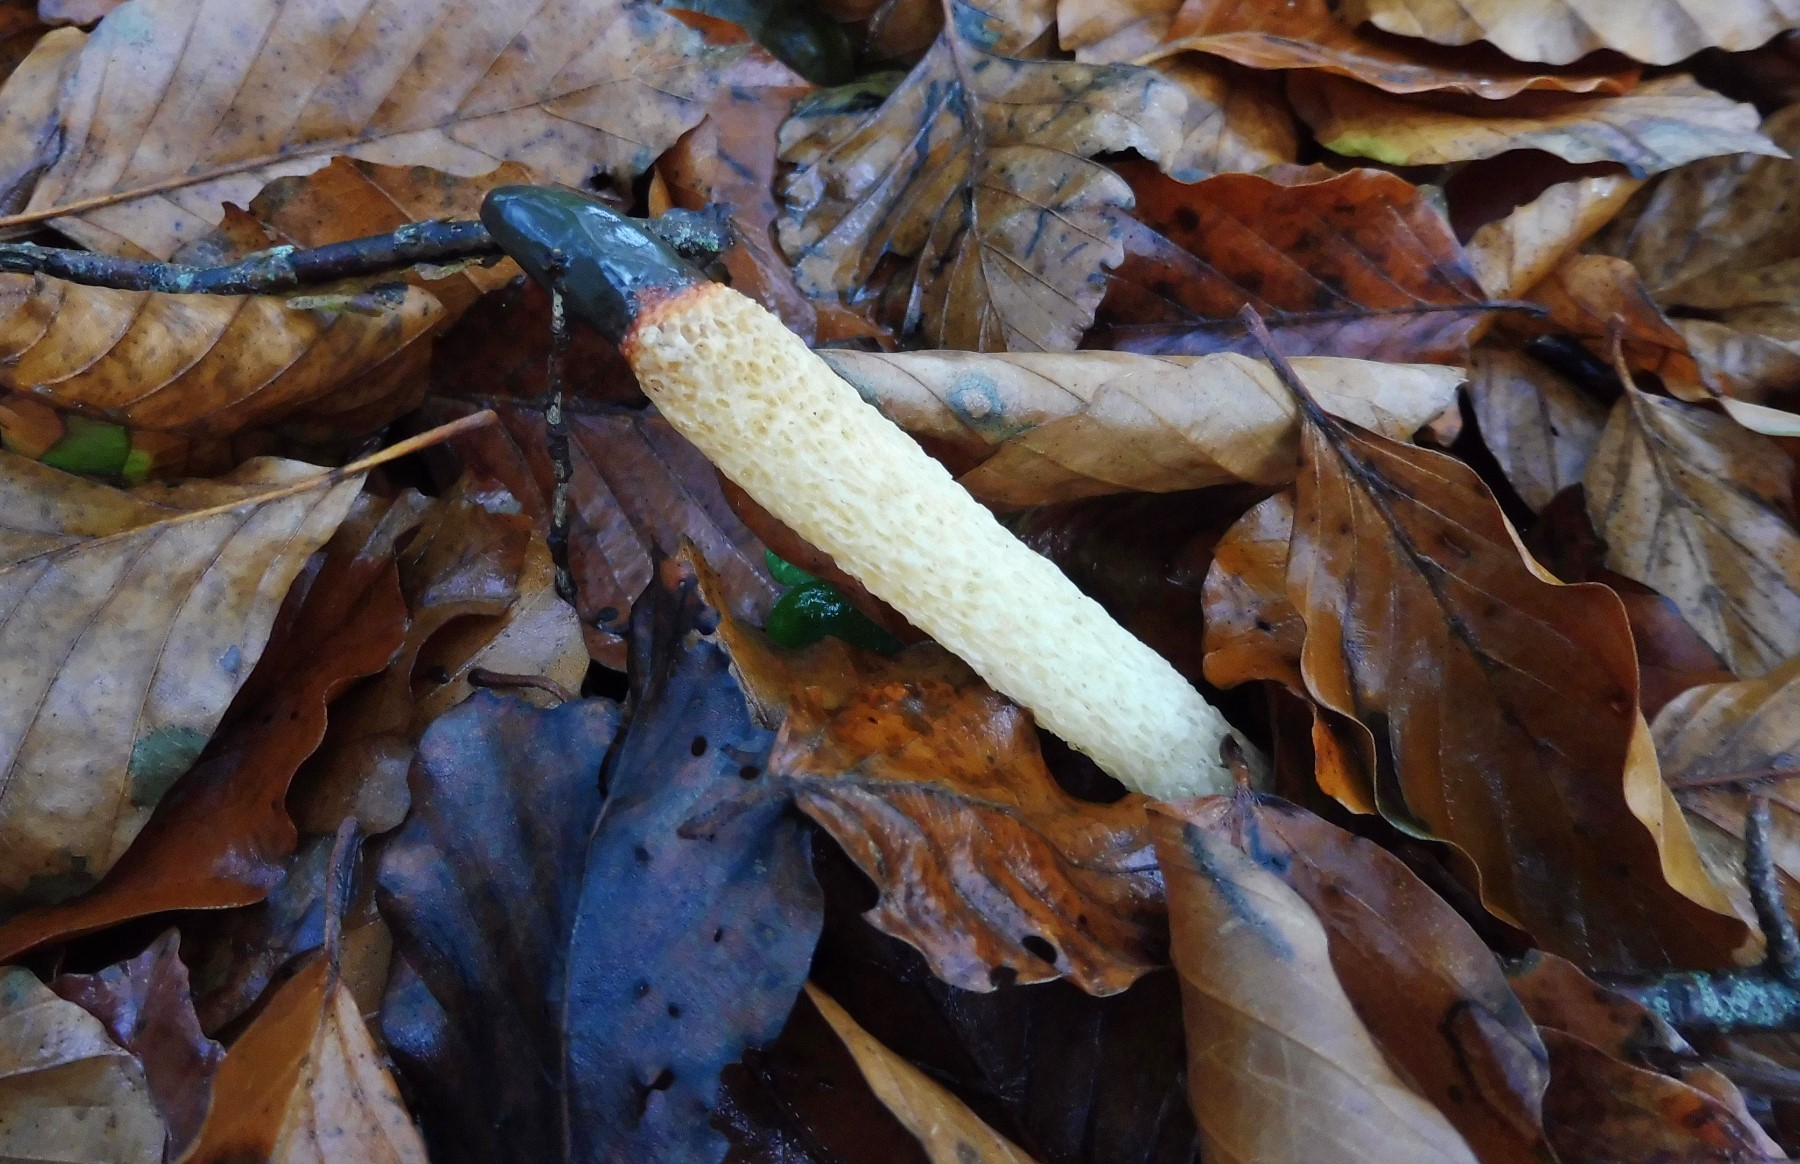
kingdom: Fungi
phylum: Basidiomycota
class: Agaricomycetes
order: Phallales
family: Phallaceae
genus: Mutinus
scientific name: Mutinus caninus
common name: hunde-stinksvamp
